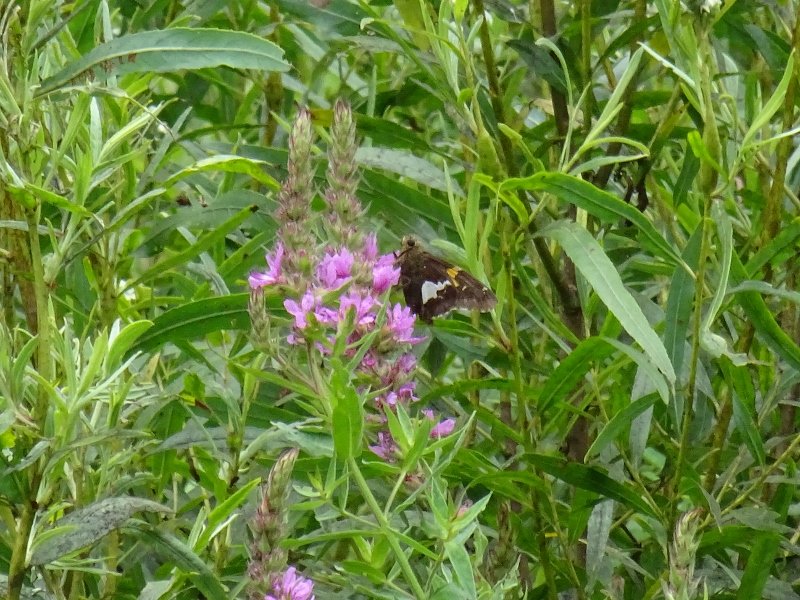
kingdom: Animalia
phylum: Arthropoda
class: Insecta
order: Lepidoptera
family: Hesperiidae
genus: Epargyreus
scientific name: Epargyreus clarus
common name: Silver-spotted Skipper
